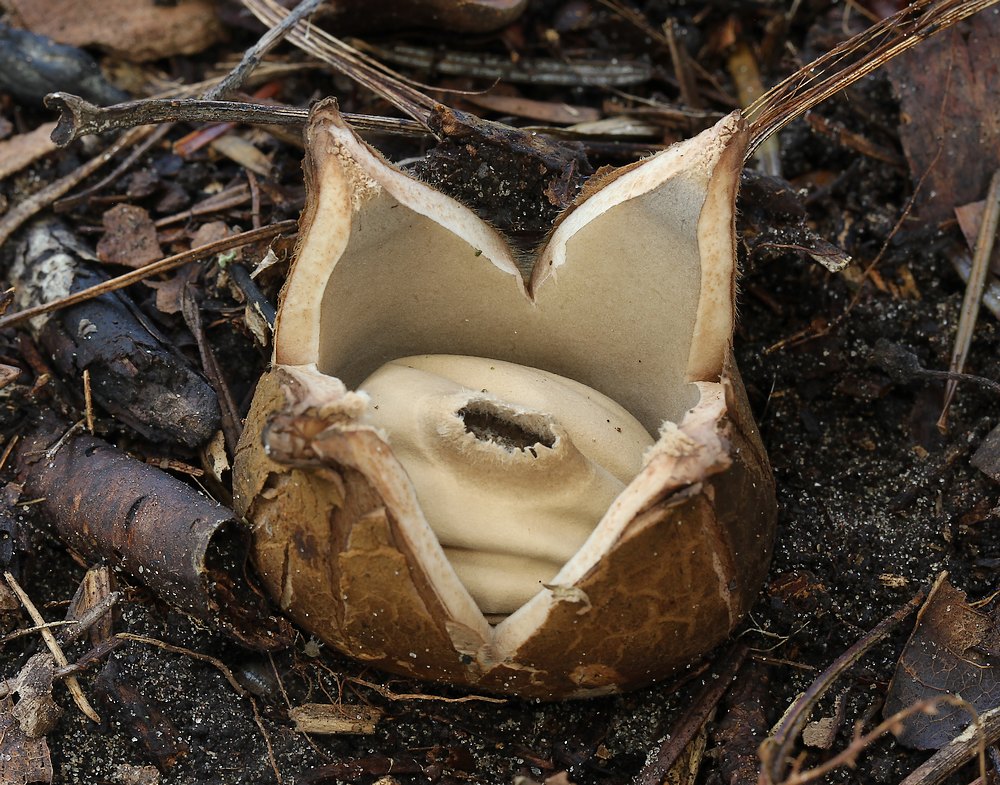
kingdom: Fungi
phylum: Basidiomycota
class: Agaricomycetes
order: Geastrales
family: Geastraceae
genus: Geastrum
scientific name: Geastrum michelianum
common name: kødet stjernebold
